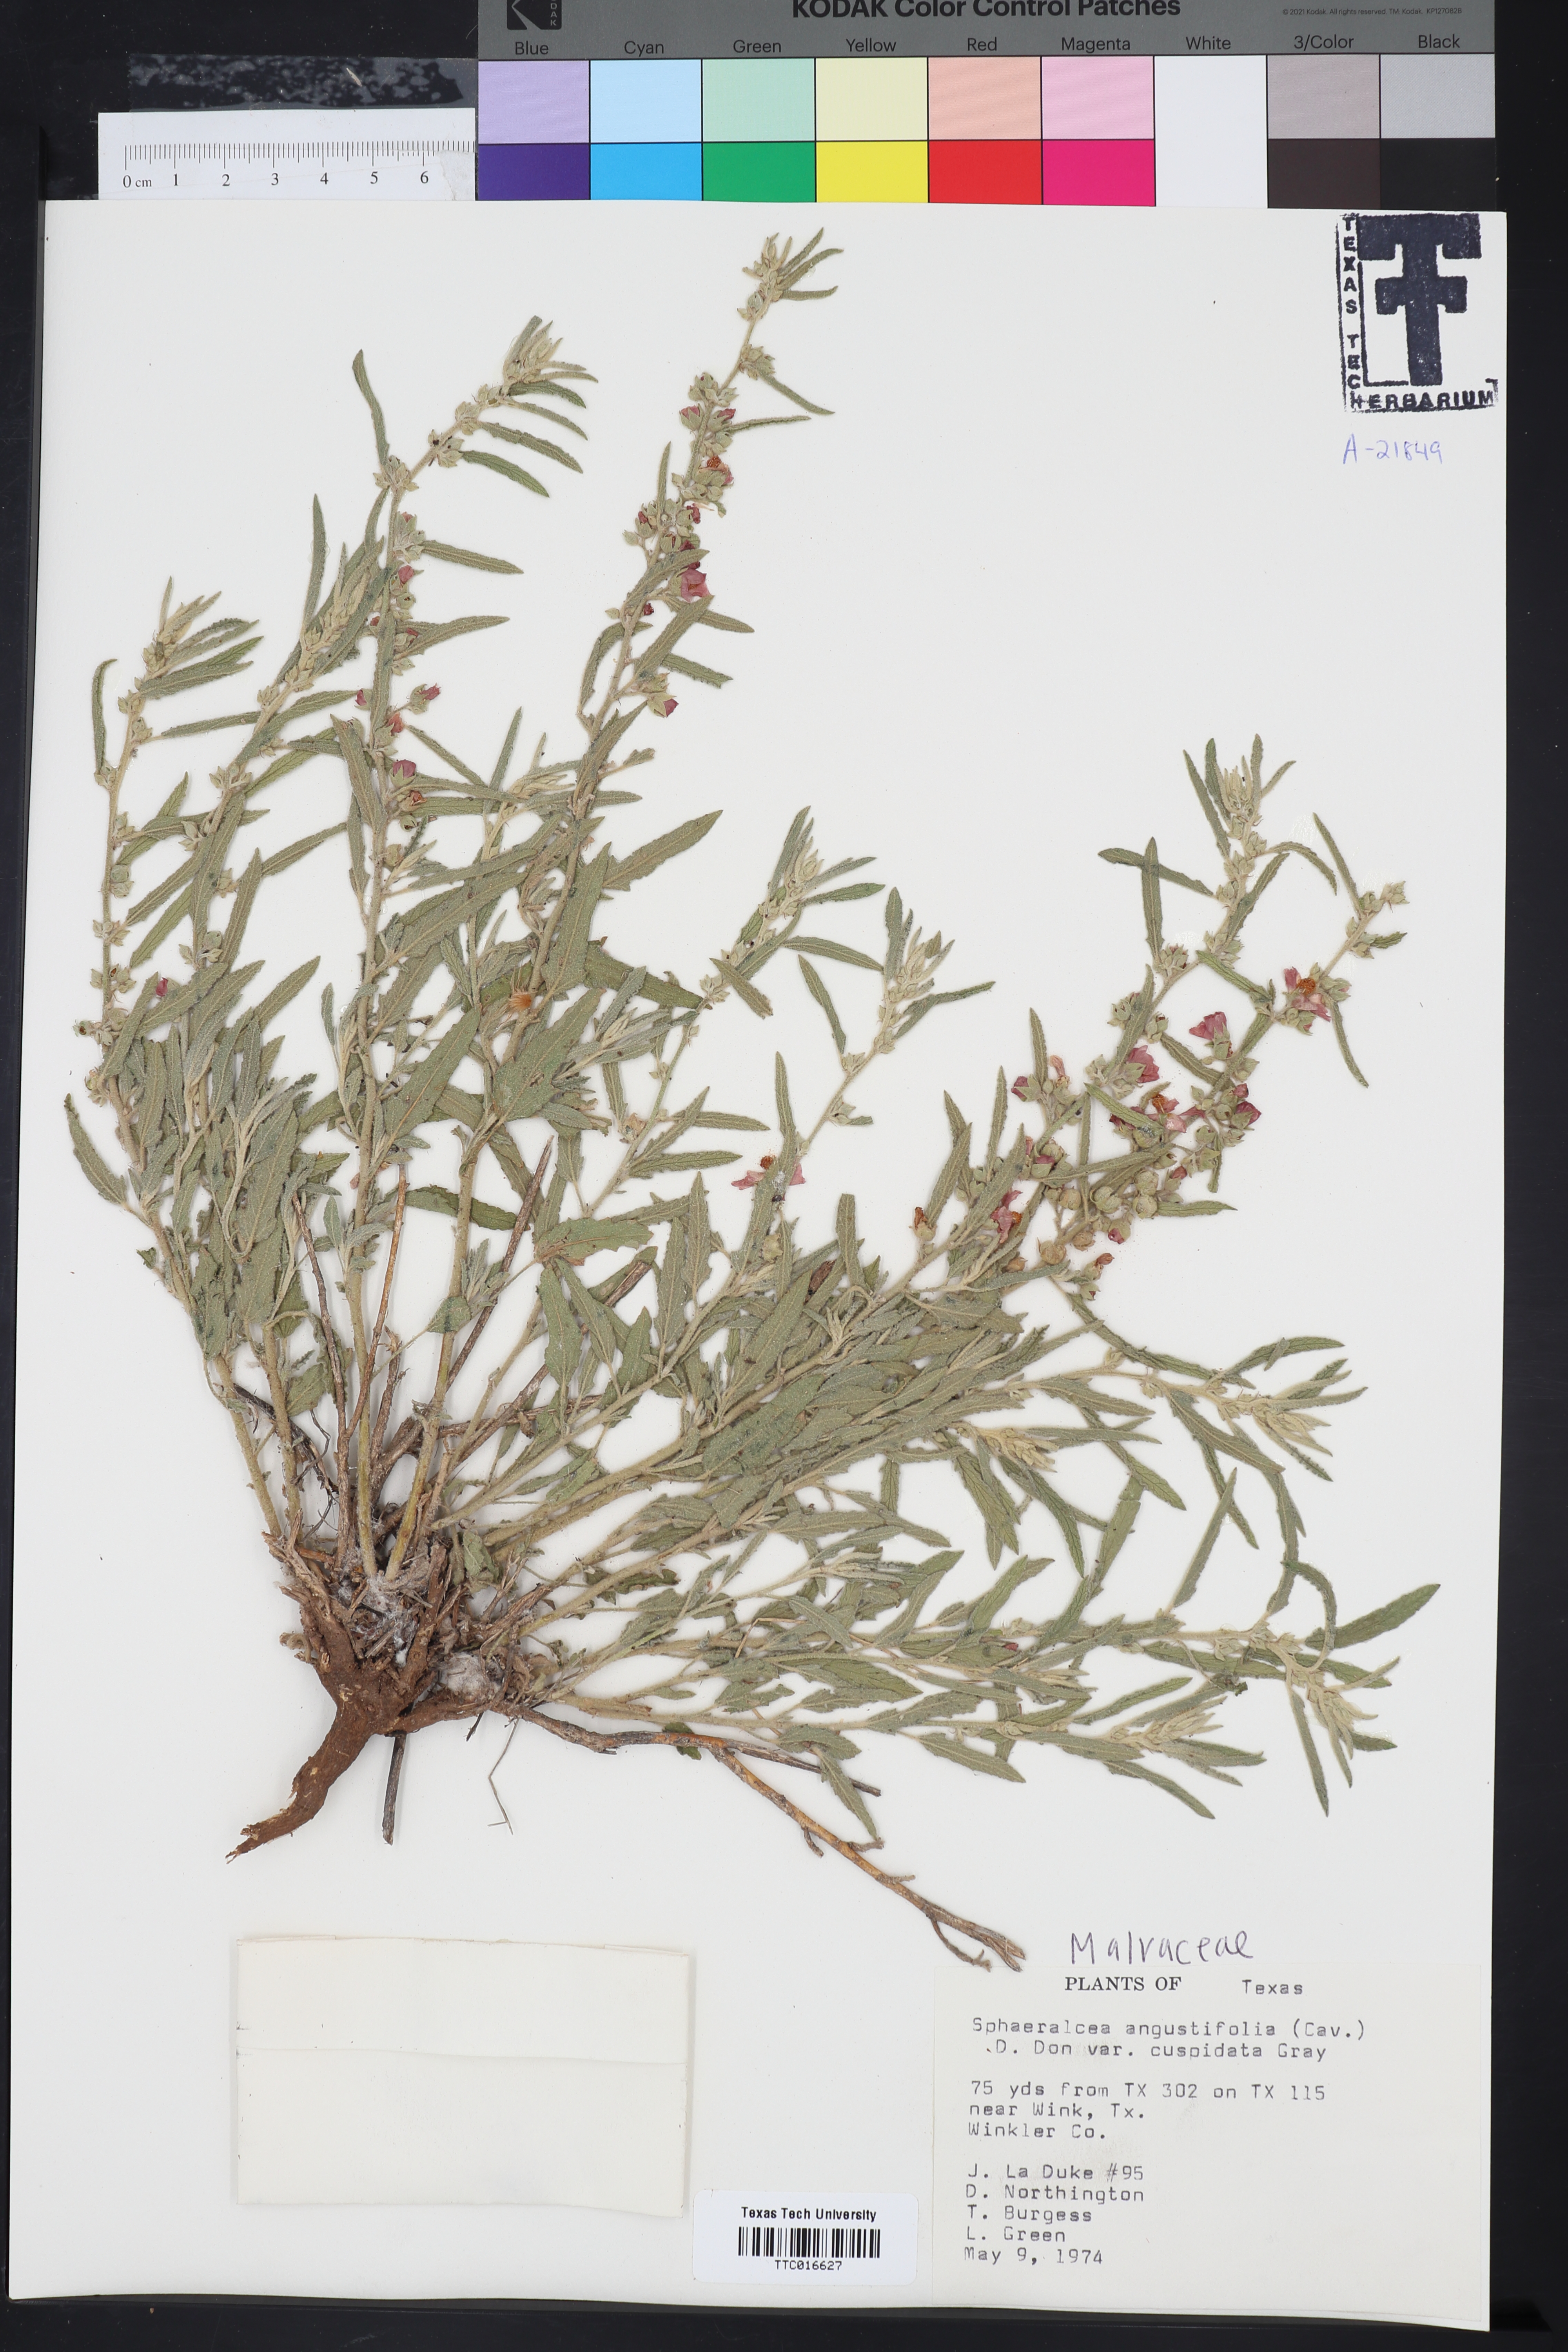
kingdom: Plantae
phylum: Tracheophyta
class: Magnoliopsida
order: Malvales
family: Malvaceae
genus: Sphaeralcea
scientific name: Sphaeralcea angustifolia
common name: Copper globe-mallow
